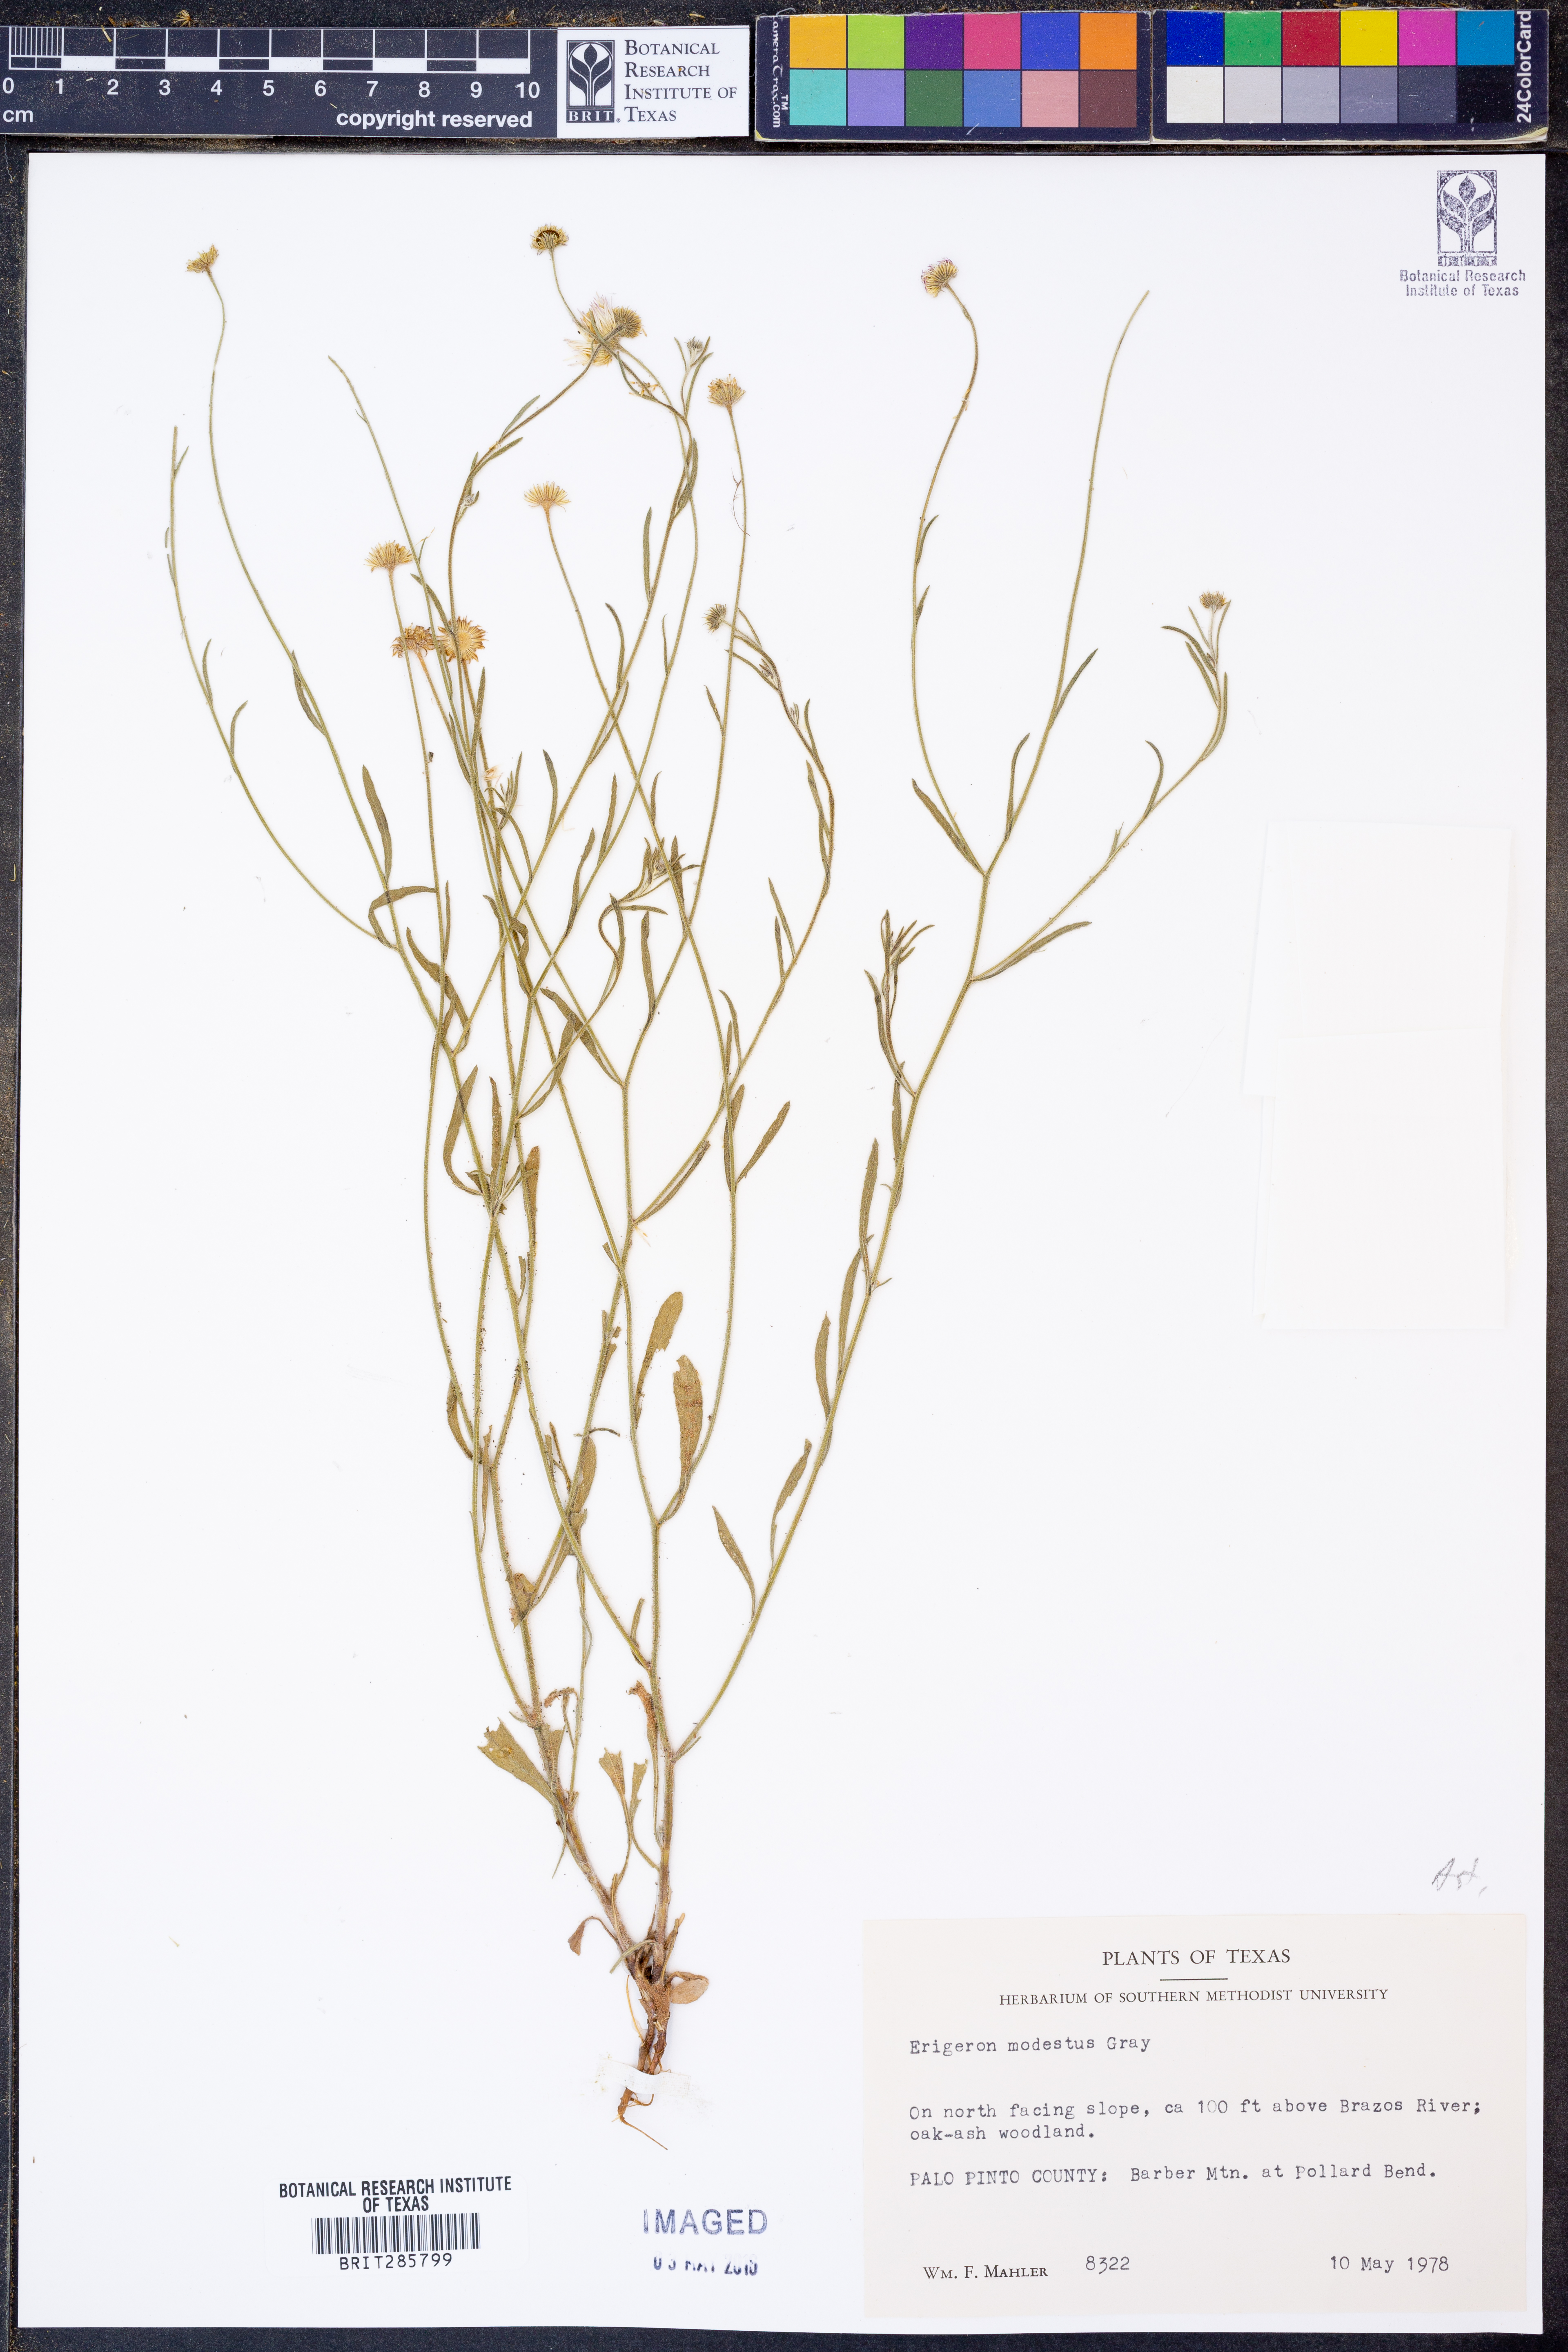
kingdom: Plantae
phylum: Tracheophyta
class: Magnoliopsida
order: Asterales
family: Asteraceae
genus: Erigeron
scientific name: Erigeron modestus
